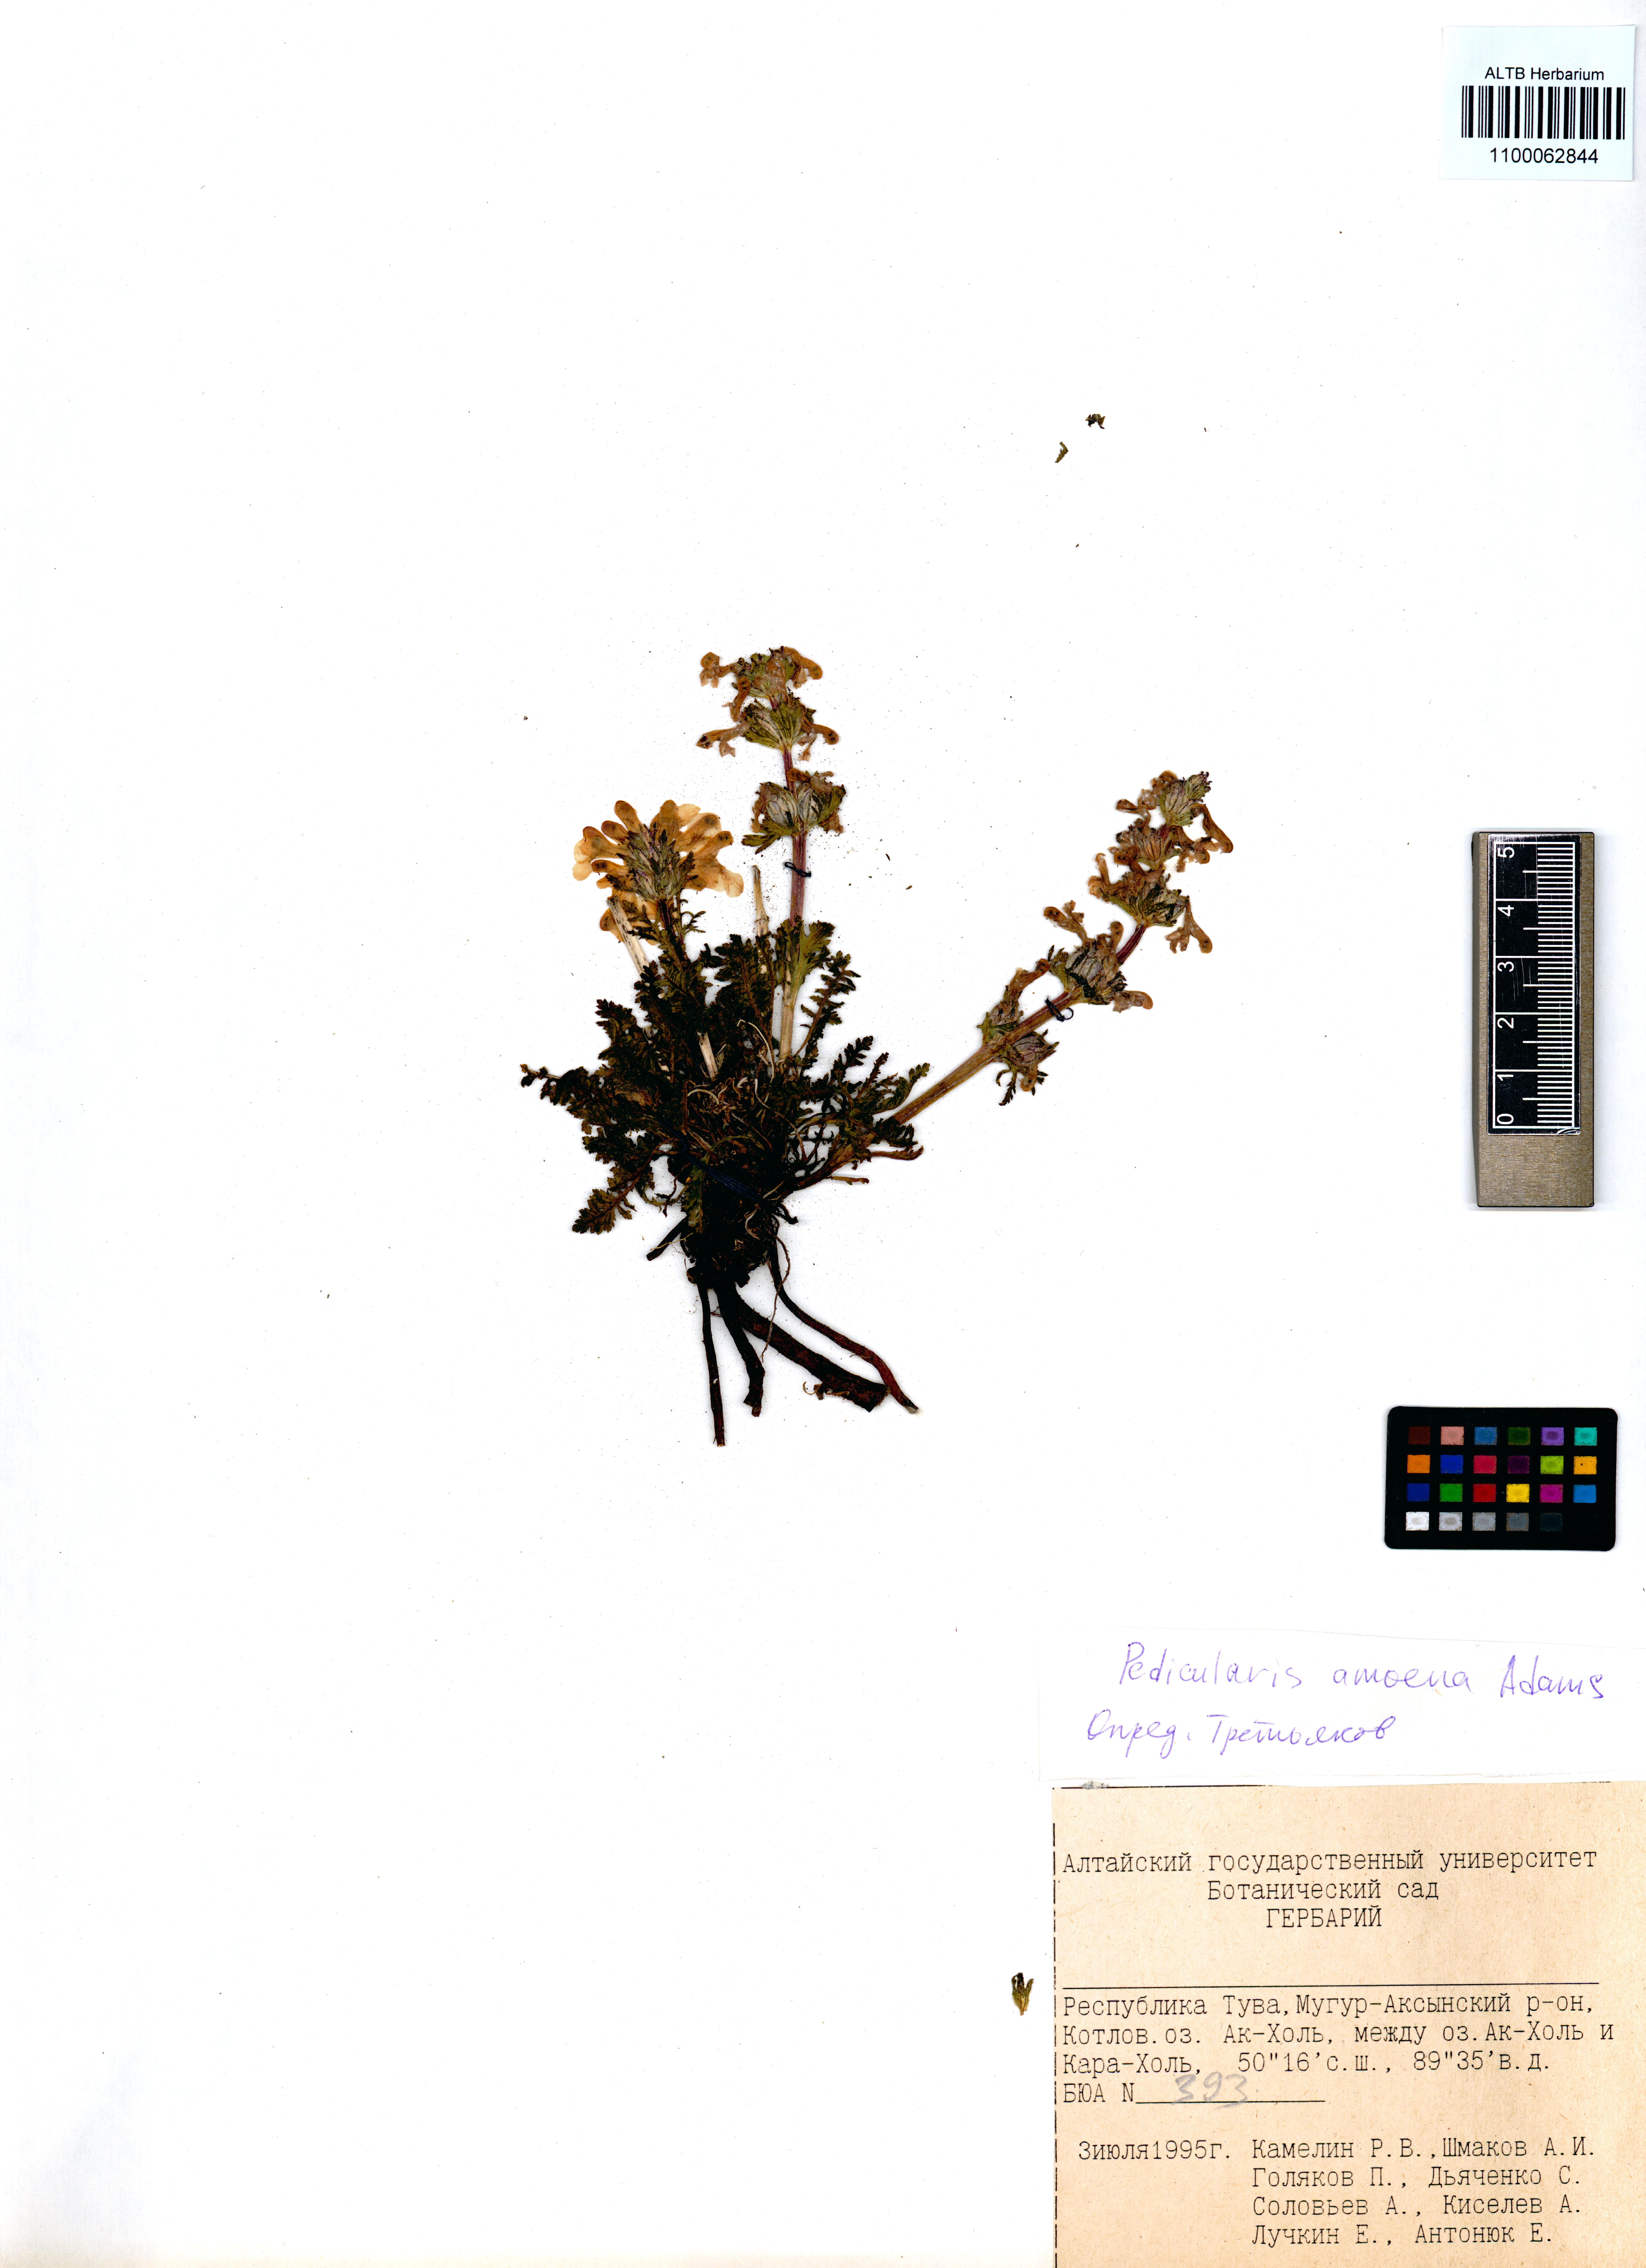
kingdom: Plantae
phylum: Tracheophyta
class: Magnoliopsida
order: Lamiales
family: Orobanchaceae
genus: Pedicularis
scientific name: Pedicularis amoena
